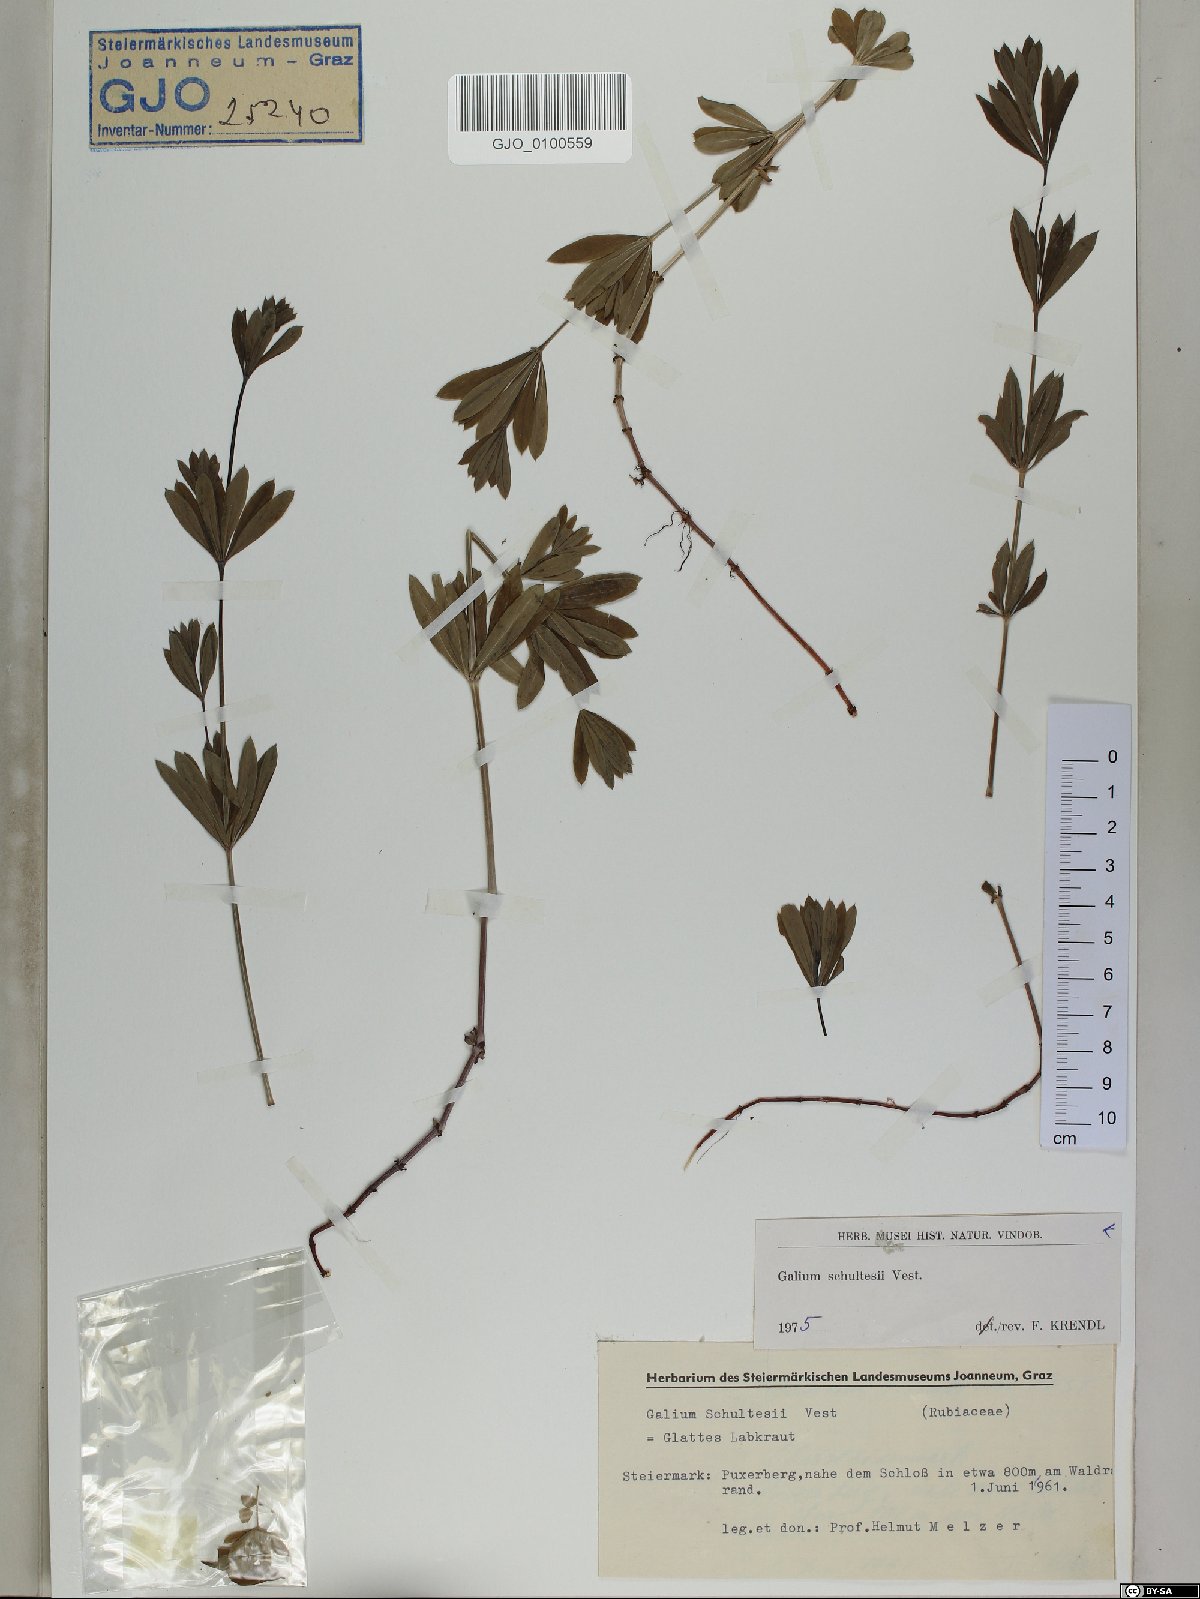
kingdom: Plantae
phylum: Tracheophyta
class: Magnoliopsida
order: Gentianales
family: Rubiaceae
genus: Galium
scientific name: Galium intermedium
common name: Bedstraw
